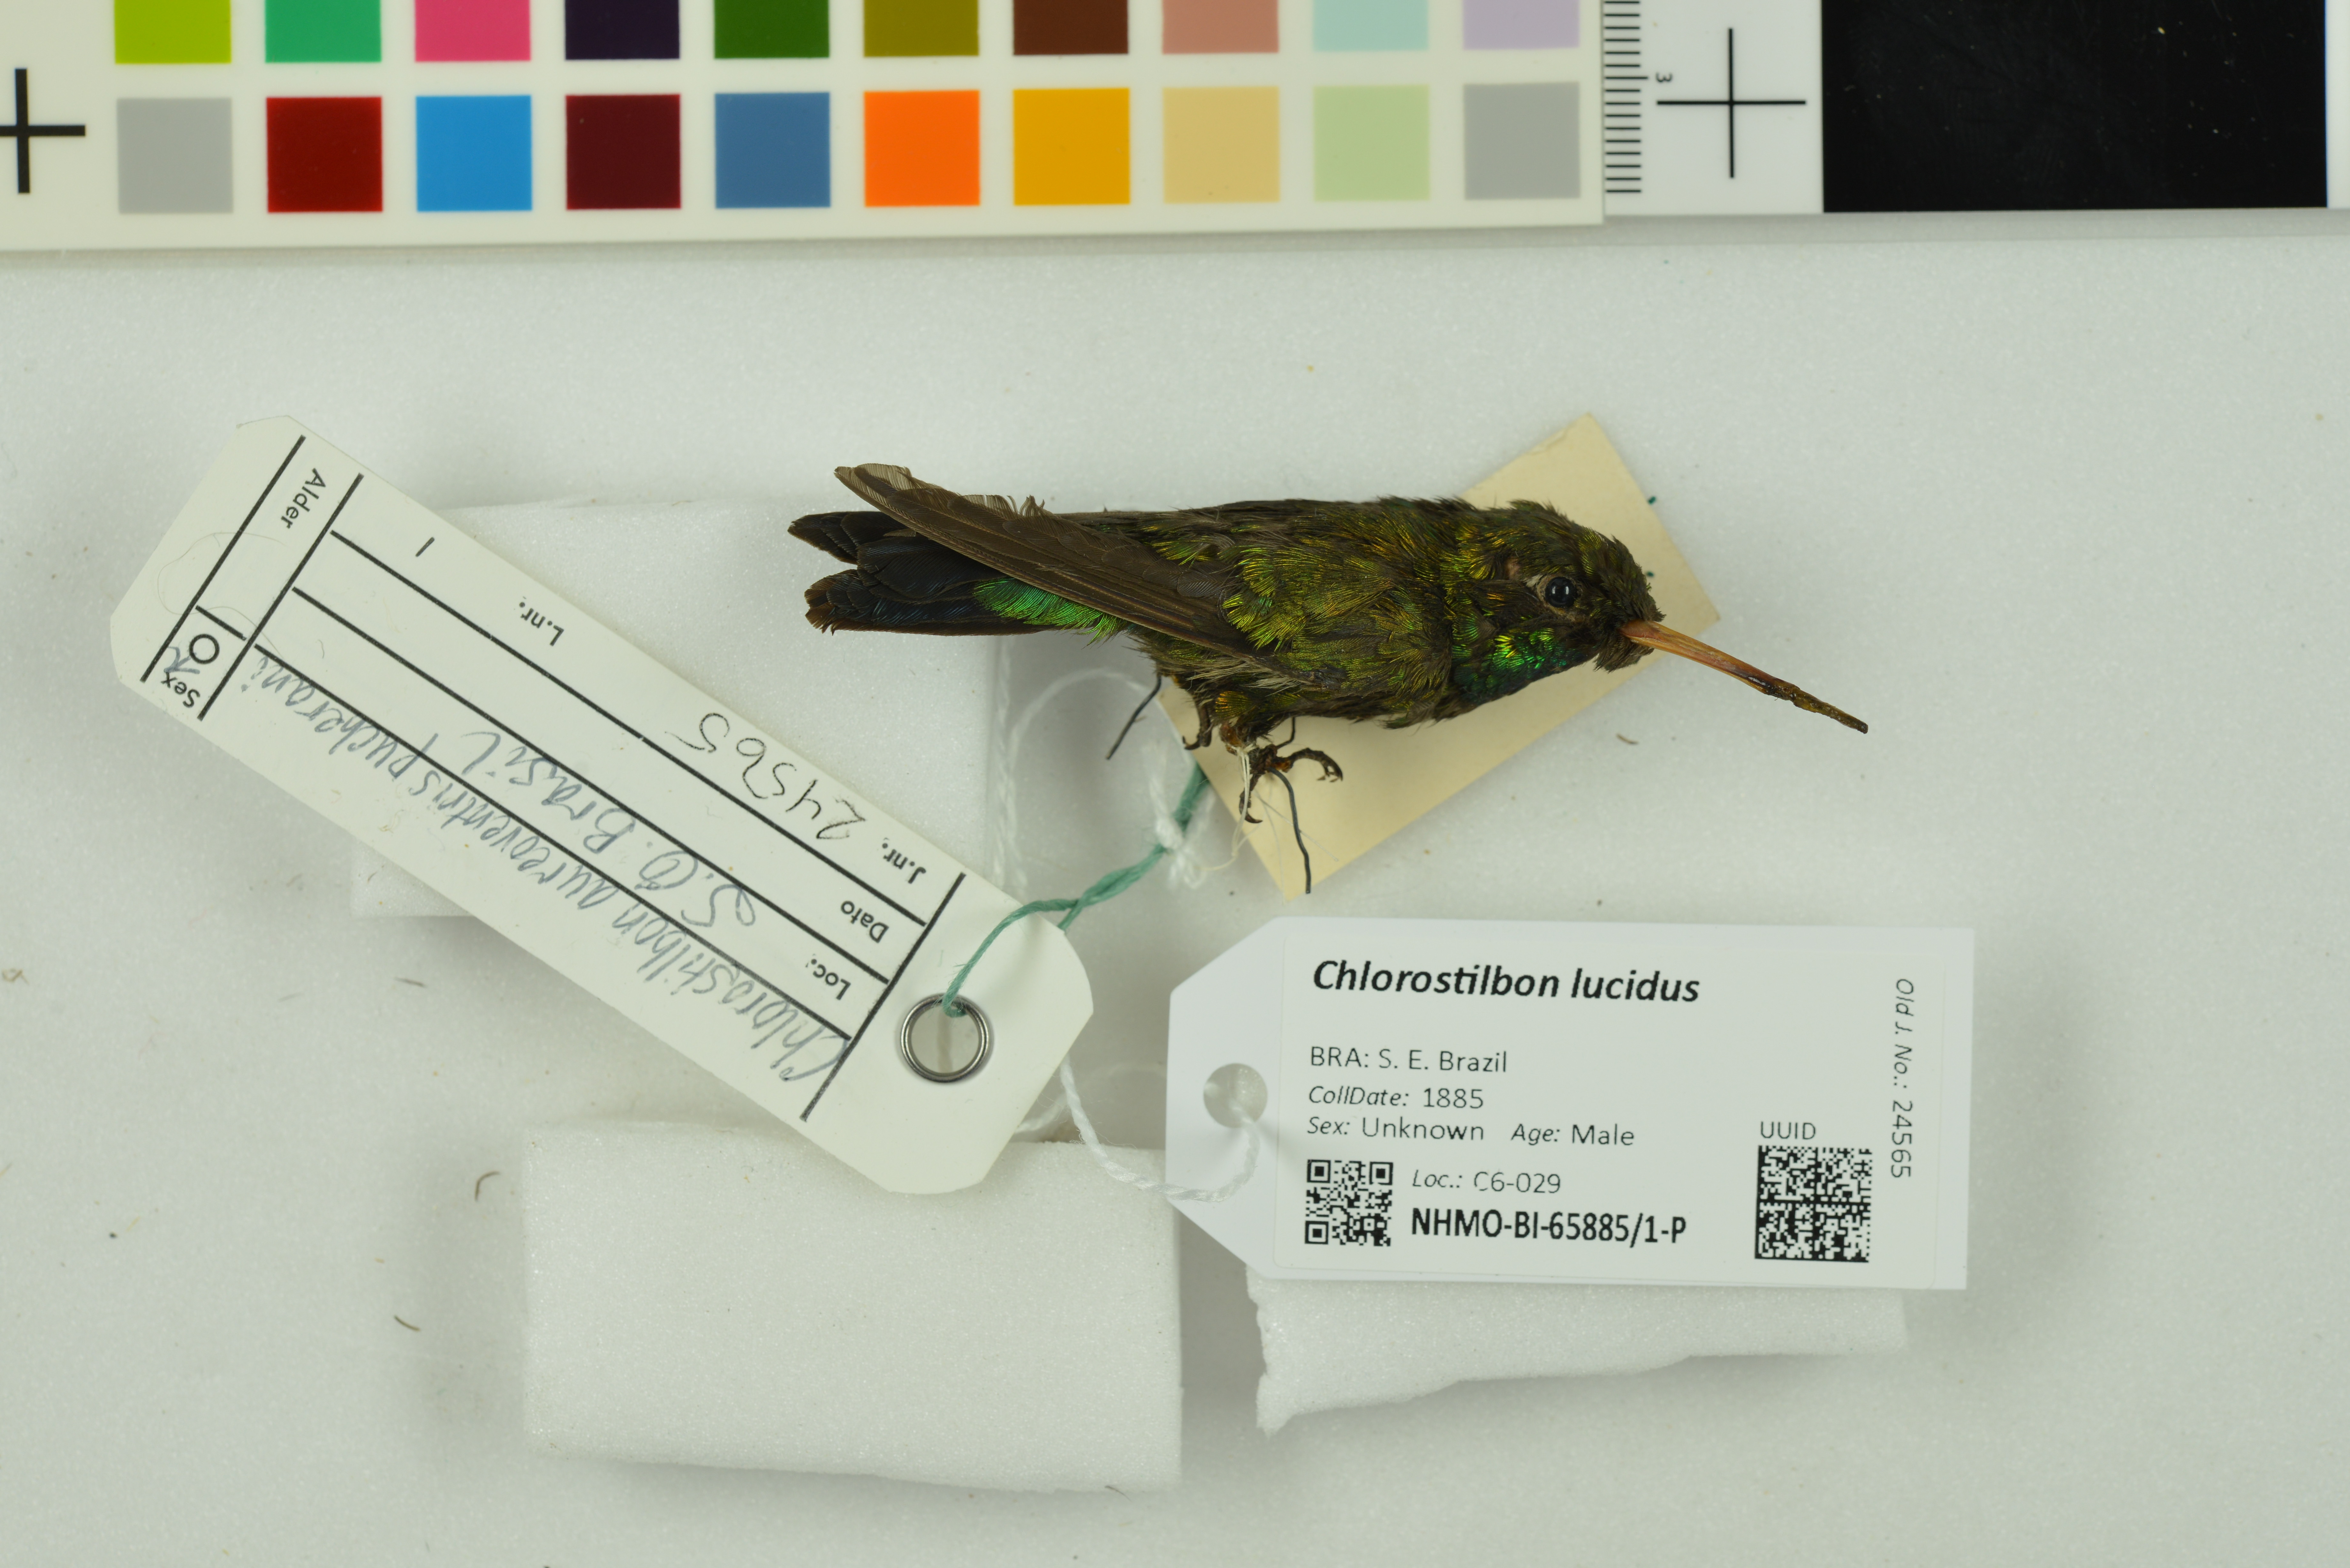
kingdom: Animalia
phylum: Chordata
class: Aves
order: Apodiformes
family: Trochilidae
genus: Chlorostilbon
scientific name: Chlorostilbon lucidus
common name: Glittering-bellied emerald
